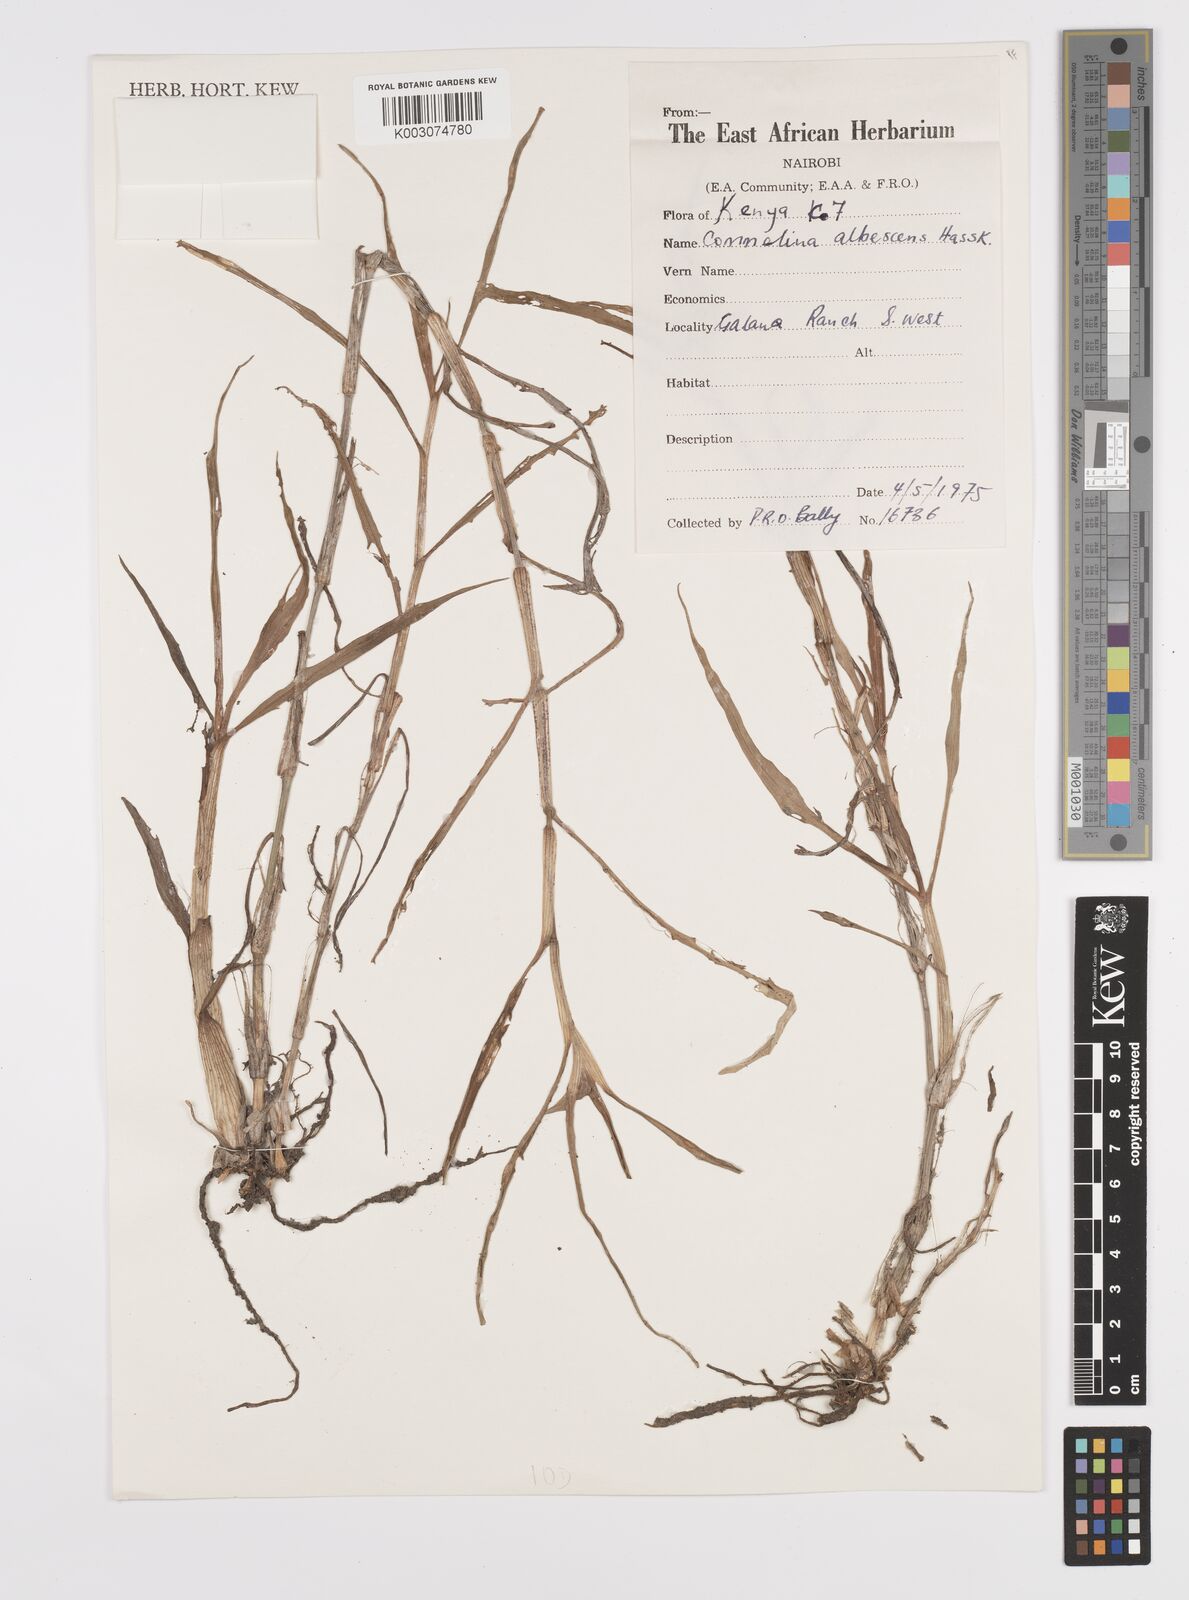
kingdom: Plantae
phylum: Tracheophyta
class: Liliopsida
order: Commelinales
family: Commelinaceae
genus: Commelina
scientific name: Commelina albescens
